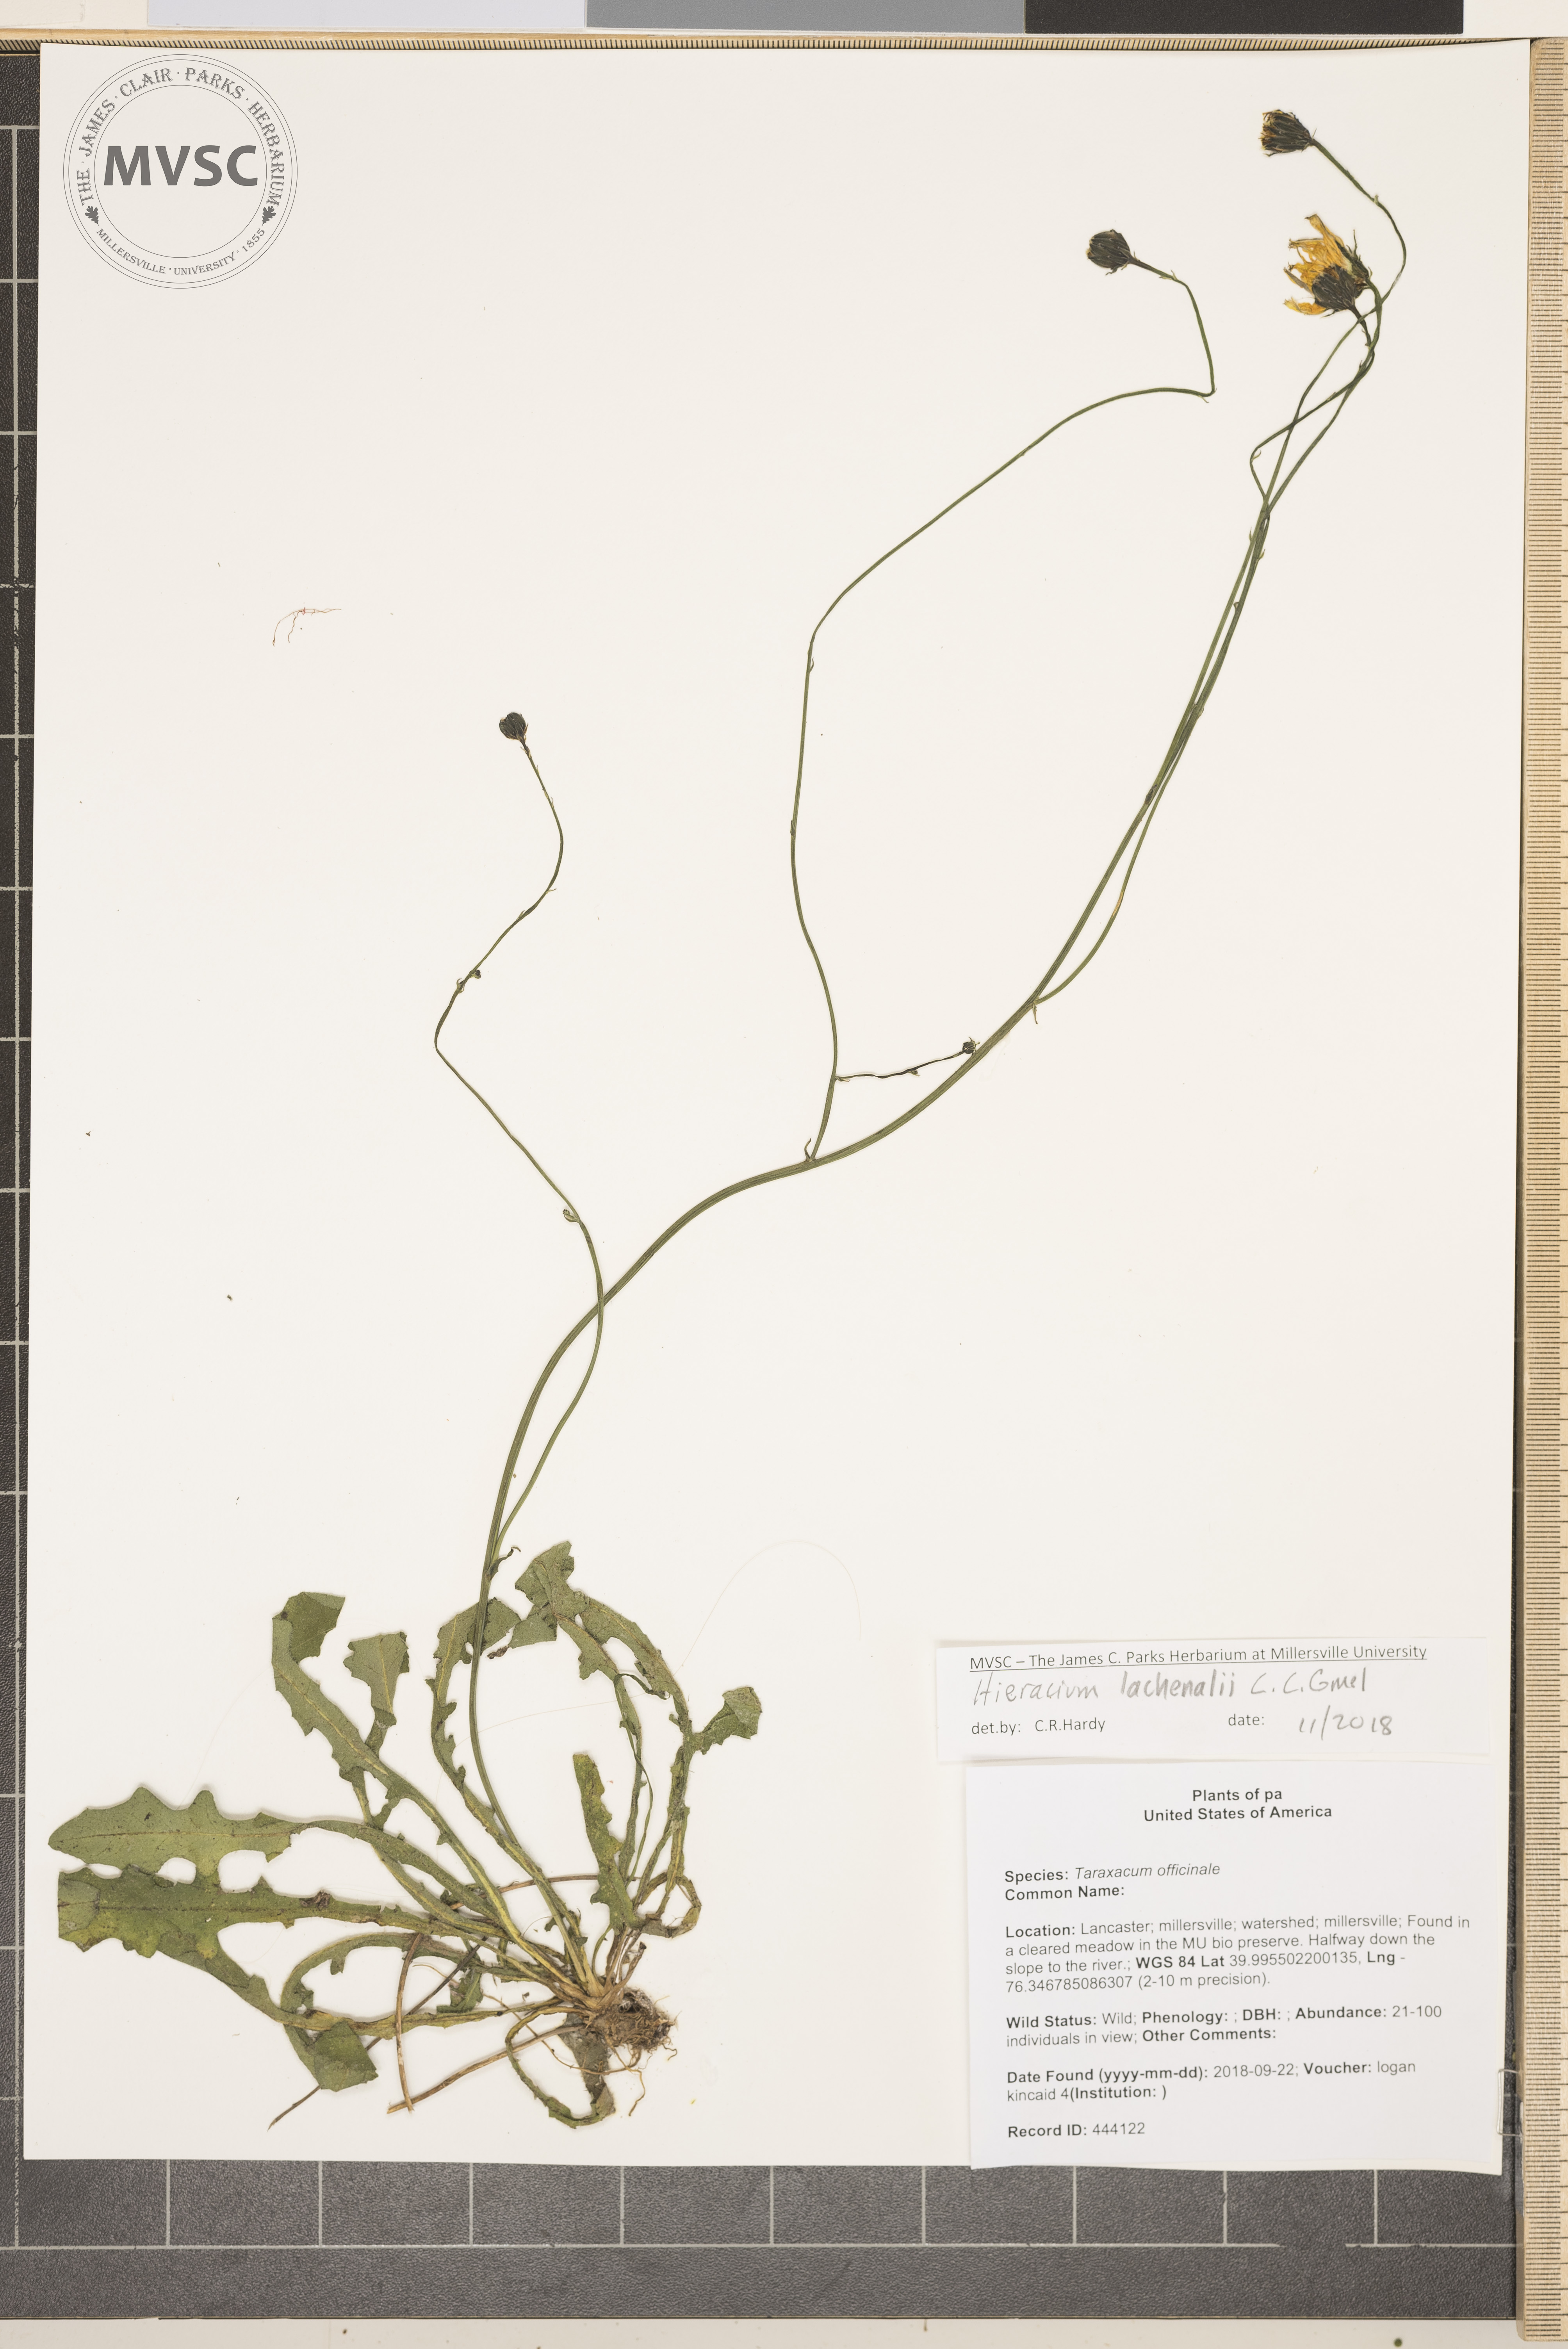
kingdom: Plantae
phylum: Tracheophyta
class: Magnoliopsida
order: Asterales
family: Asteraceae
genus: Hieracium
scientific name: Hieracium lachenalii
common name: European Hawkweed
